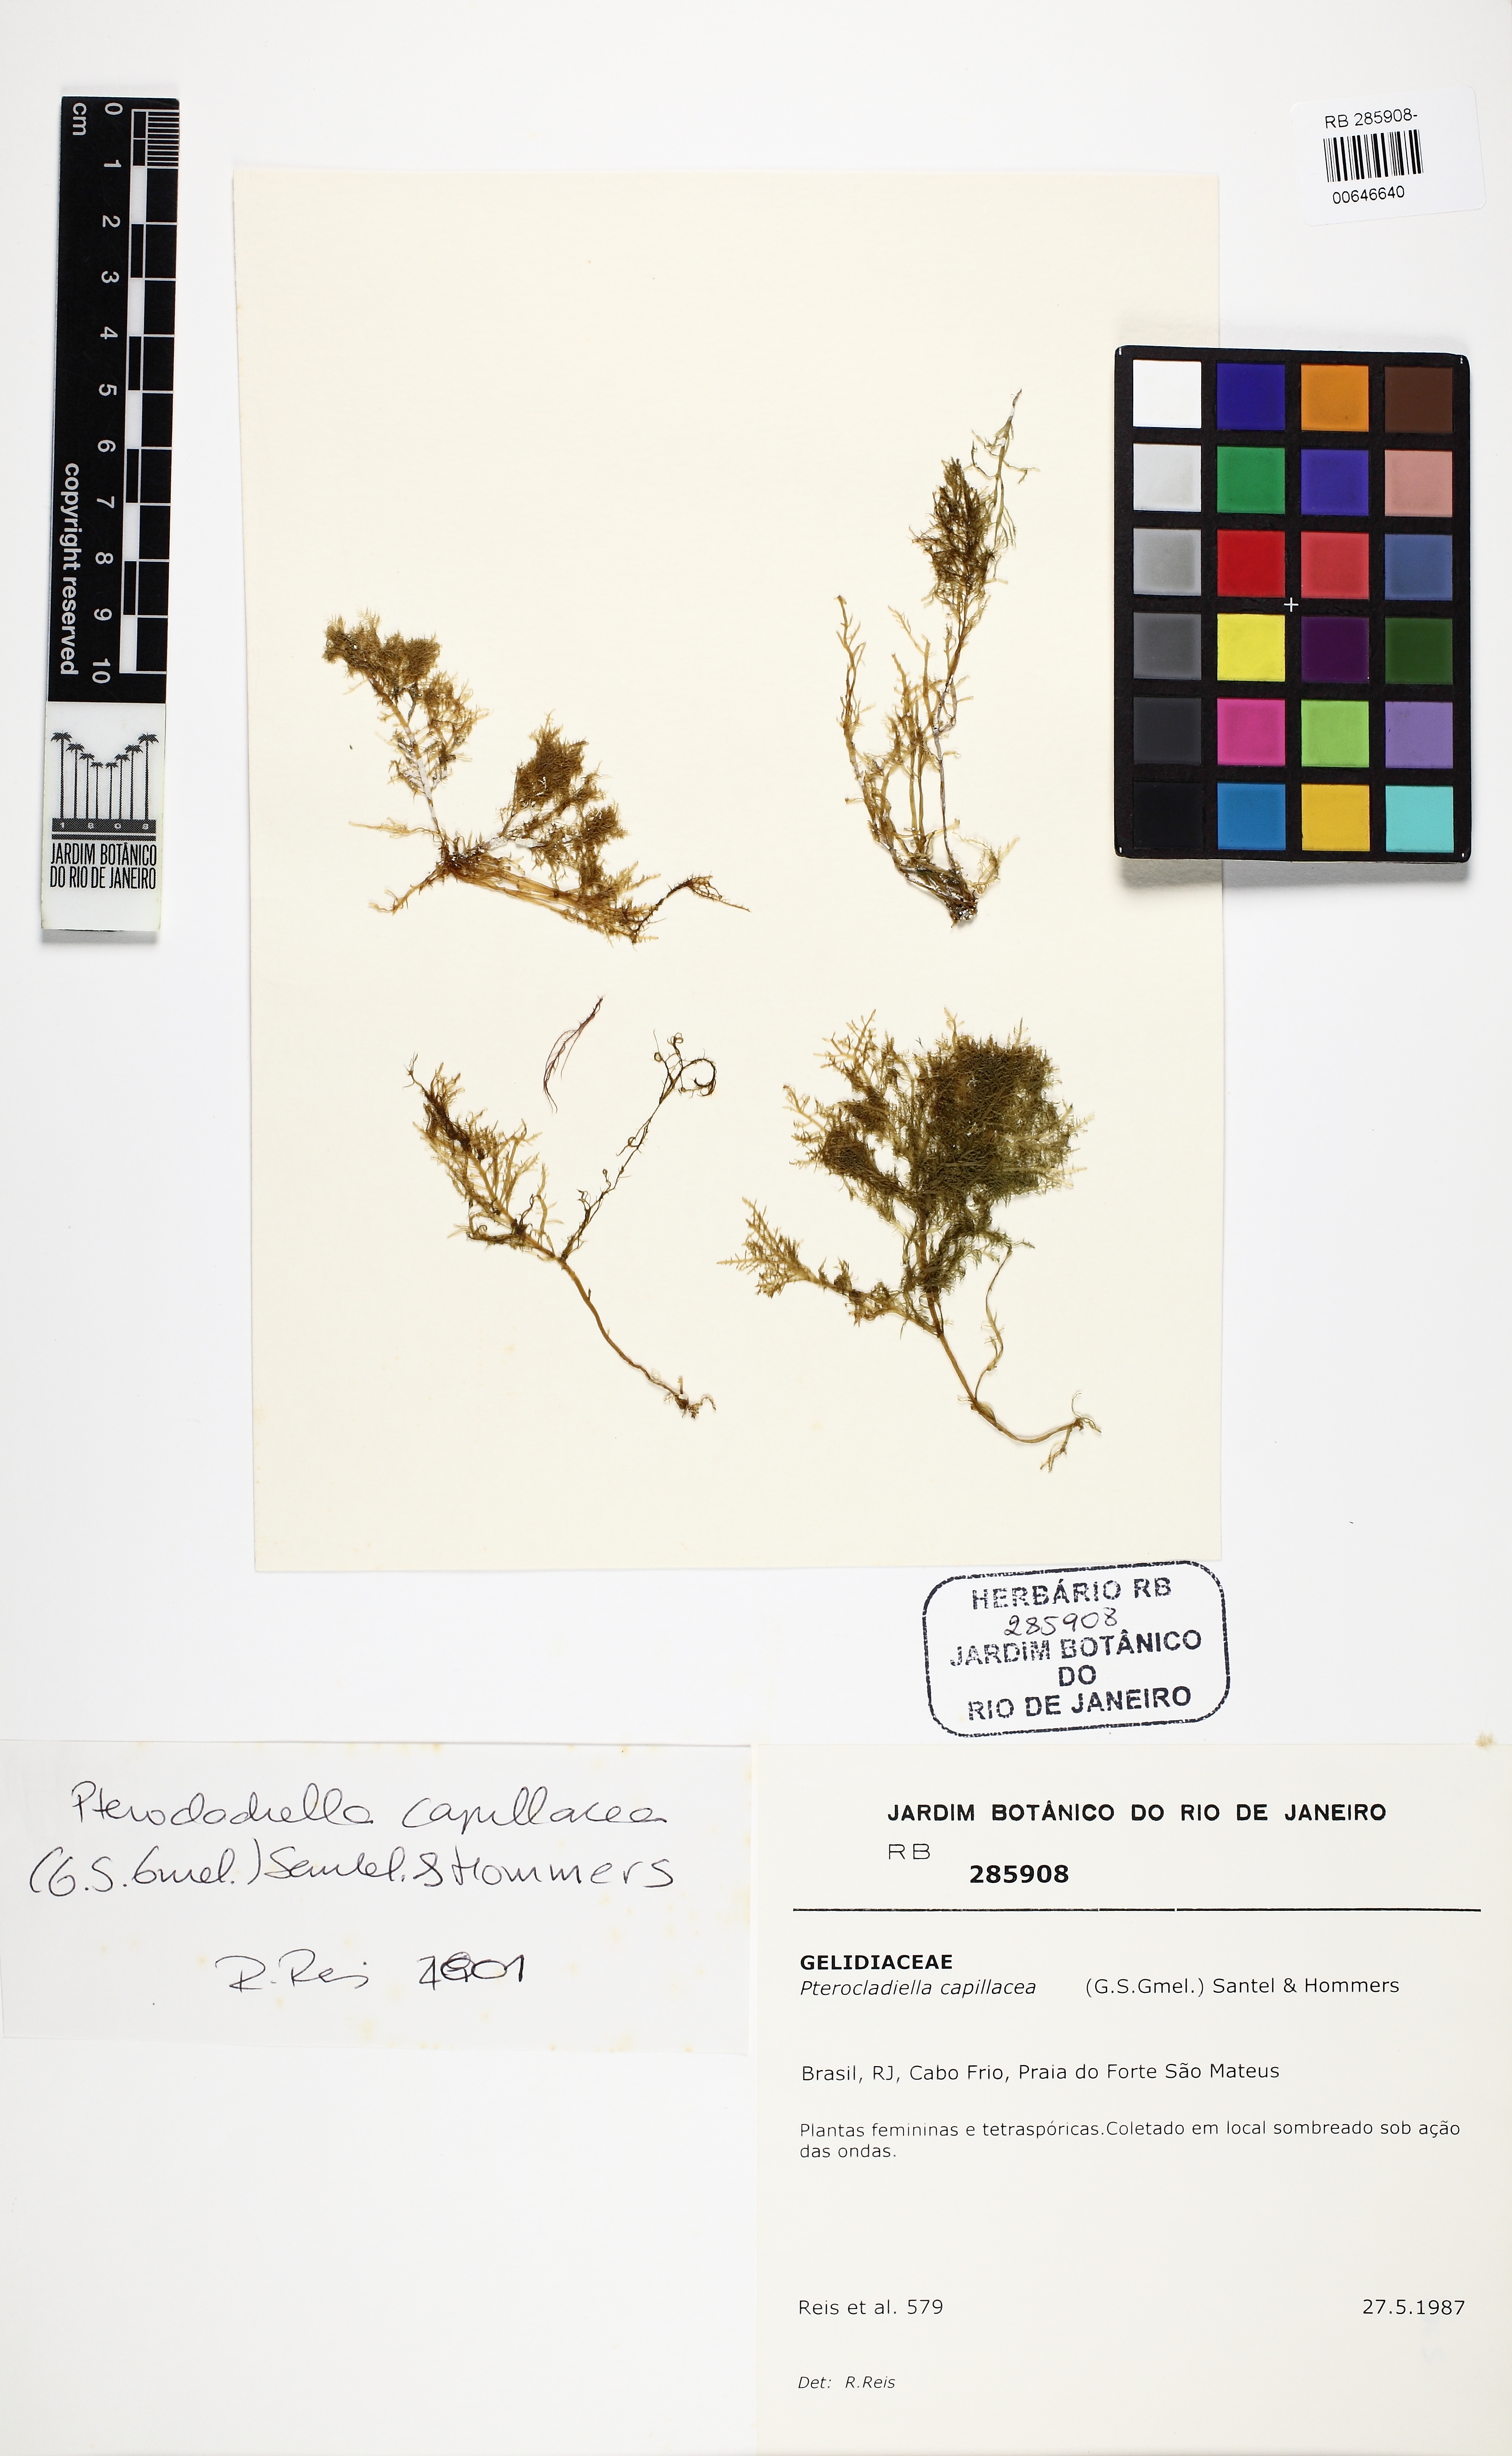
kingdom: Plantae
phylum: Rhodophyta
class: Florideophyceae
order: Gelidiales
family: Pterocladiaceae
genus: Pterocladiella
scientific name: Pterocladiella capillacea
